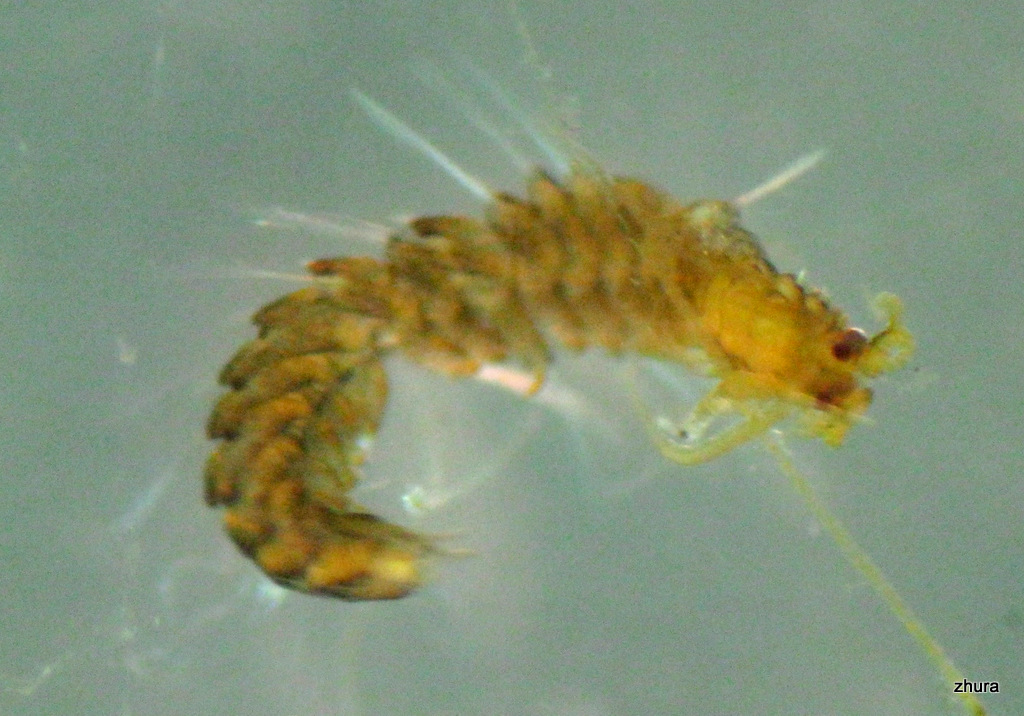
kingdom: Animalia
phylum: Annelida
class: Polychaeta
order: Phyllodocida
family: Syllidae
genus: Proceraea
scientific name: Proceraea prismatica
